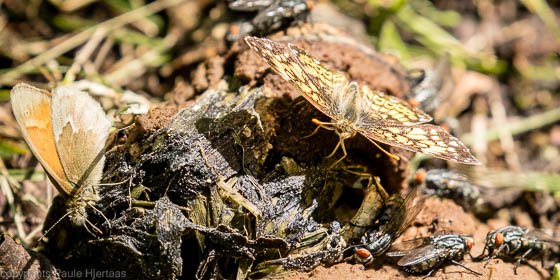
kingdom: Animalia
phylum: Arthropoda
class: Insecta
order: Lepidoptera
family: Nymphalidae
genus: Coenonympha
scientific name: Coenonympha tullia
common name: Large Heath
